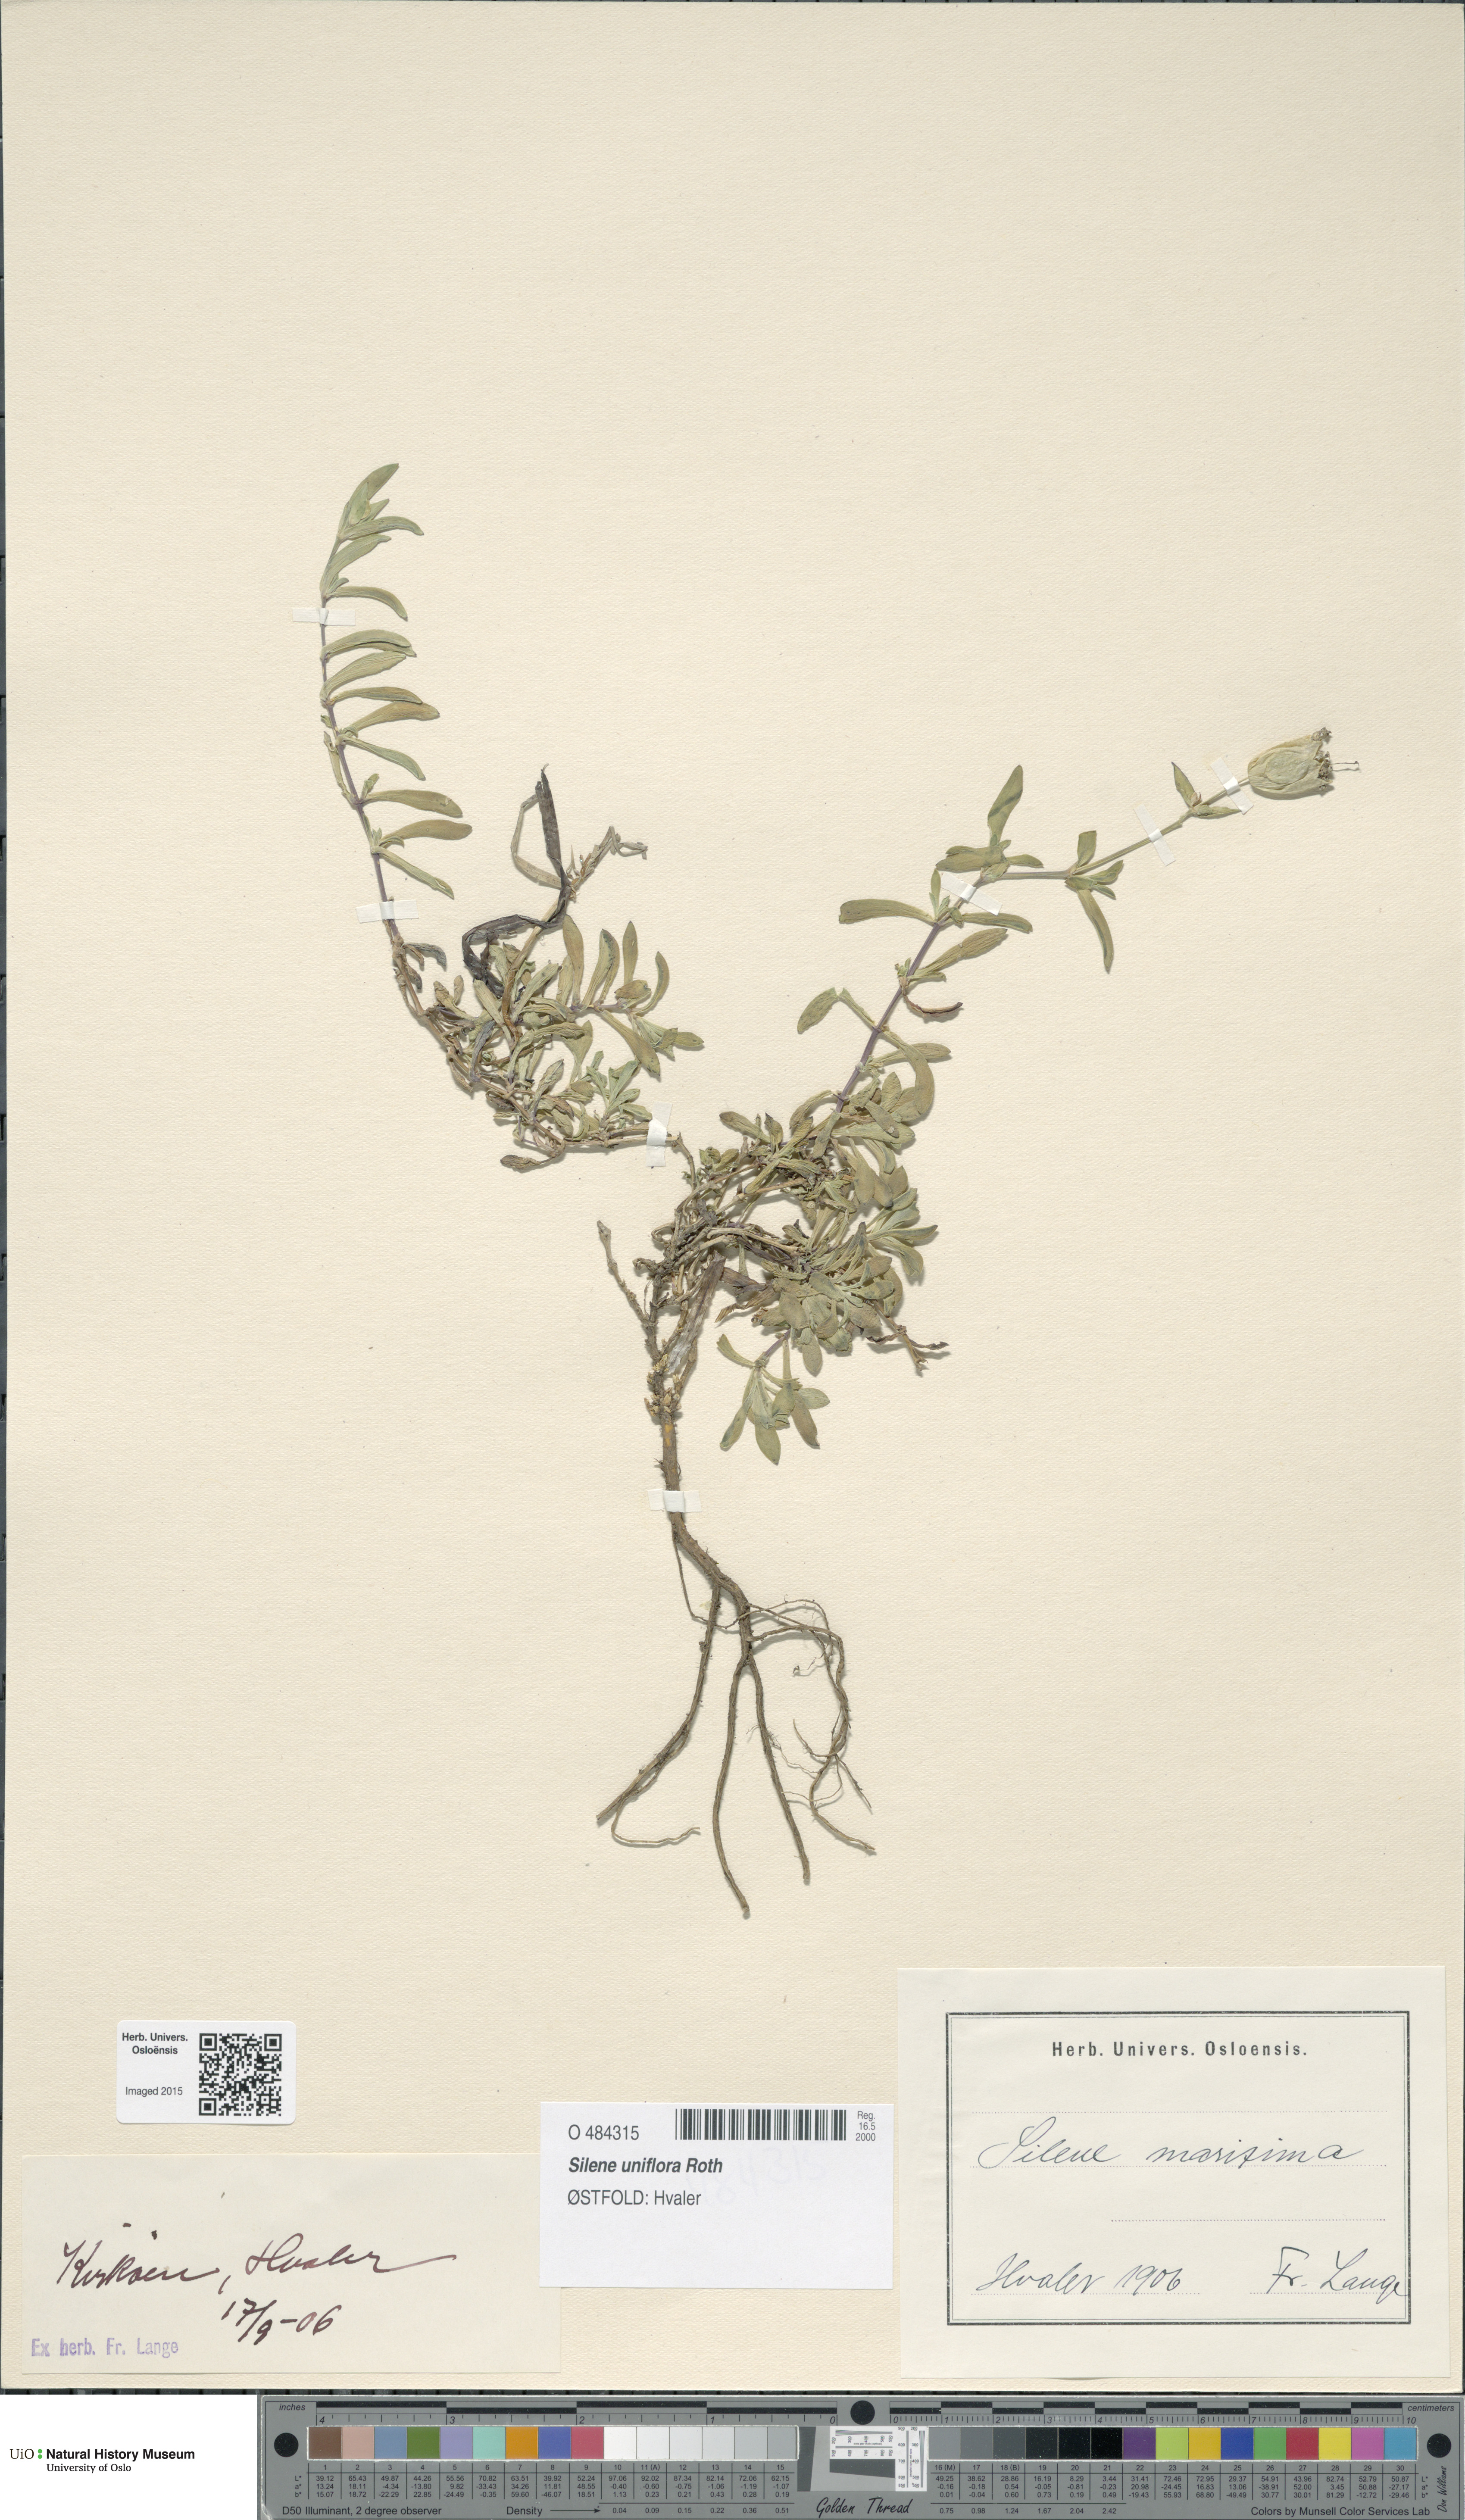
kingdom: Plantae
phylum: Tracheophyta
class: Magnoliopsida
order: Caryophyllales
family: Caryophyllaceae
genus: Silene
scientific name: Silene uniflora
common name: Sea campion
